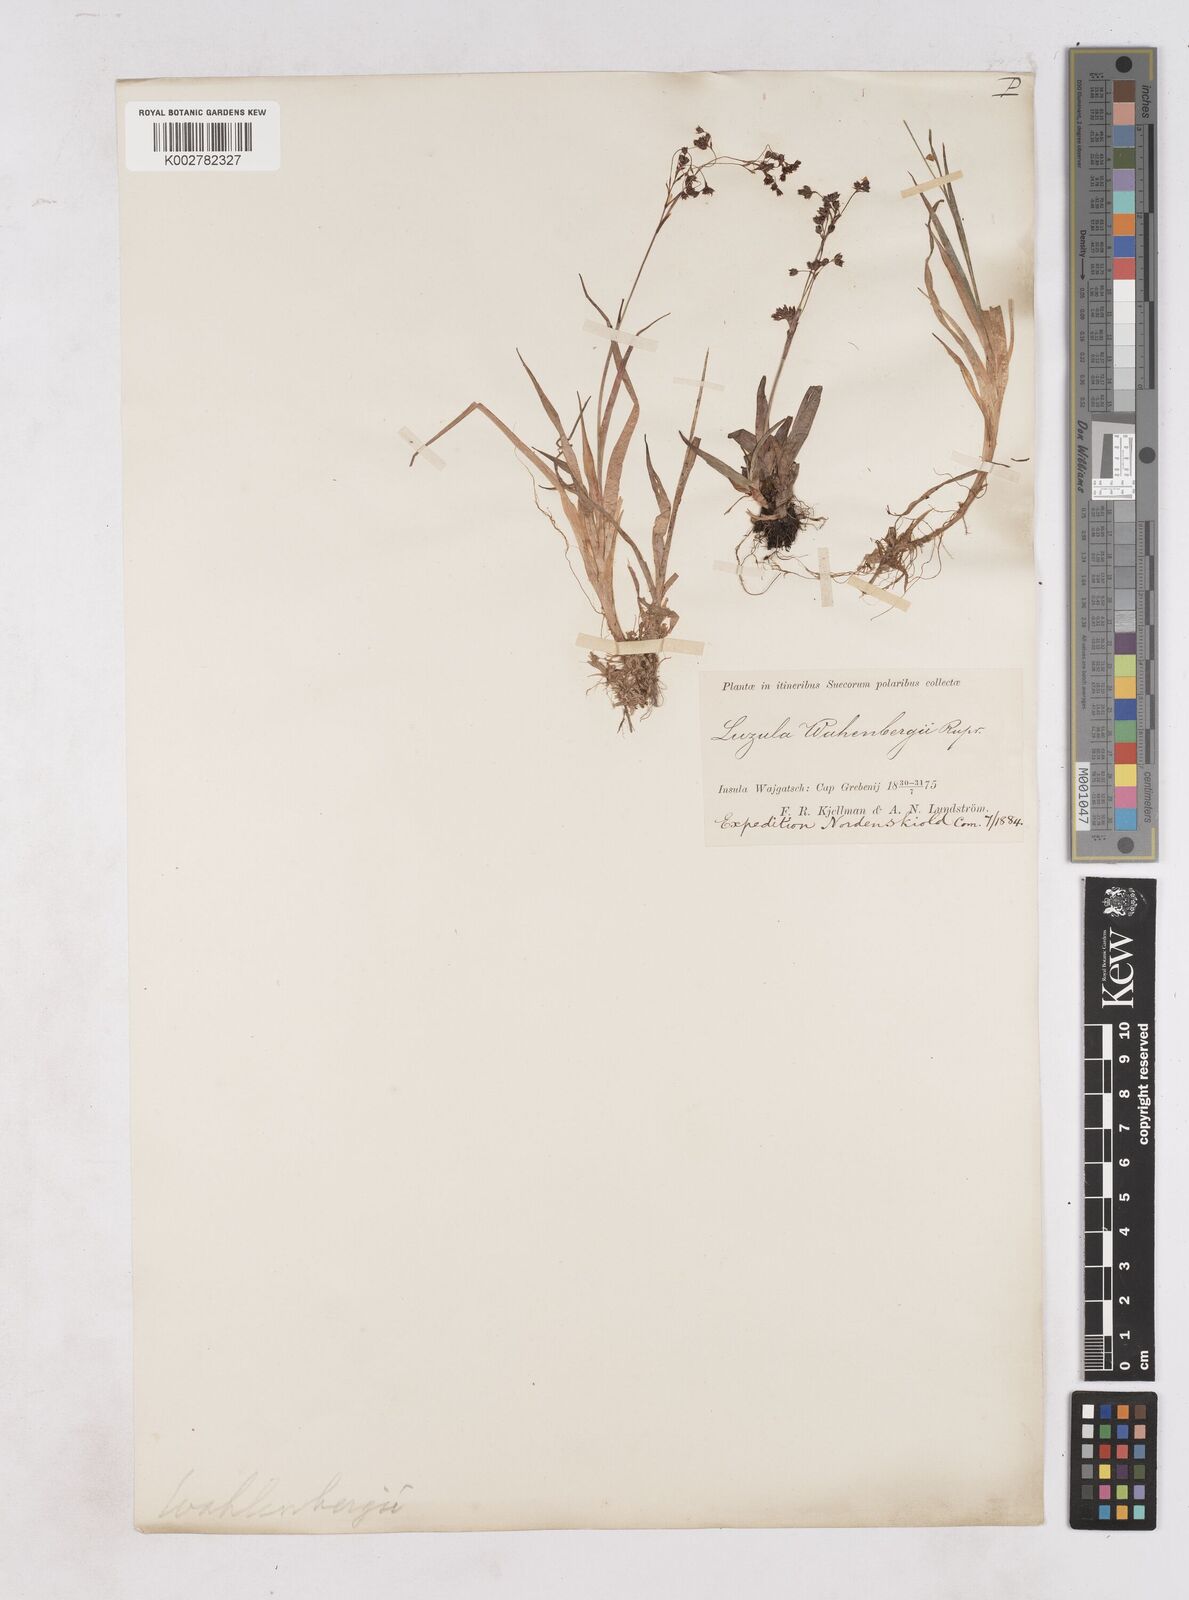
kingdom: Plantae
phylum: Tracheophyta
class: Liliopsida
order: Poales
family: Juncaceae
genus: Luzula
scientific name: Luzula alpinopilosa
